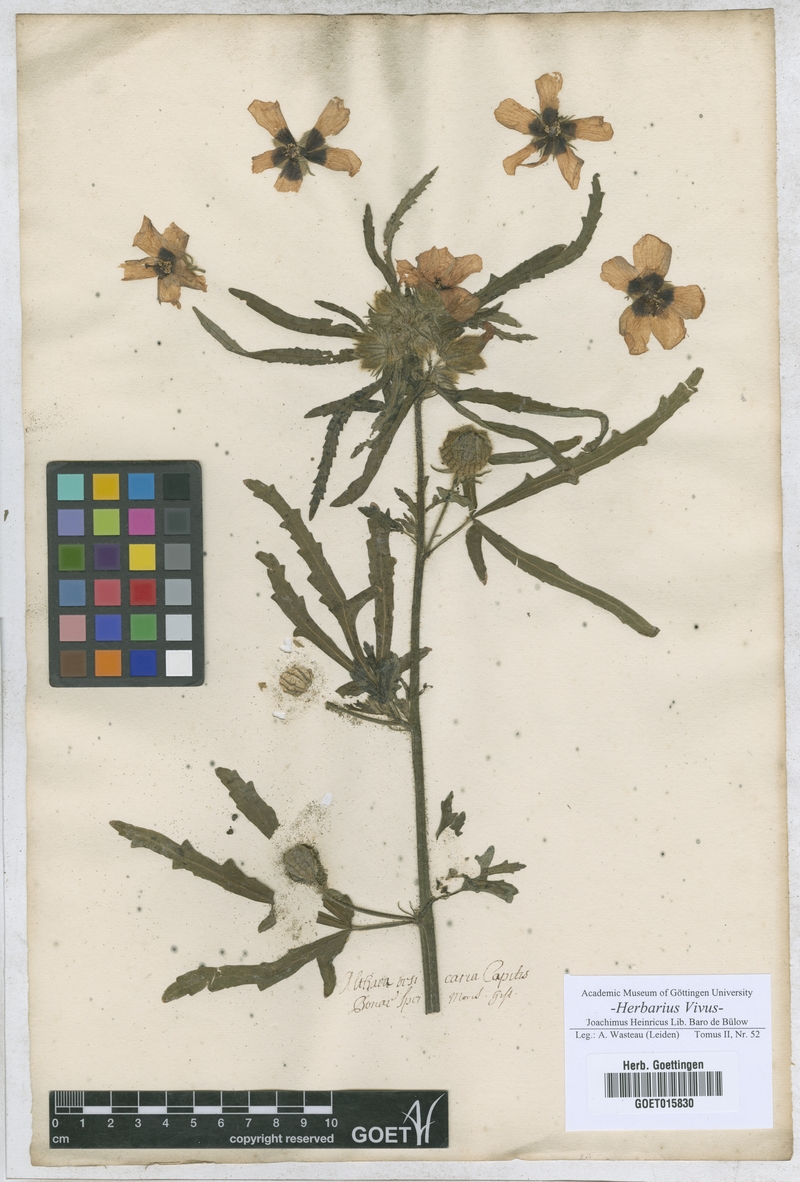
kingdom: Plantae
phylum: Tracheophyta
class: Magnoliopsida
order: Malvales
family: Malvaceae
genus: Althaea
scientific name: Althaea
